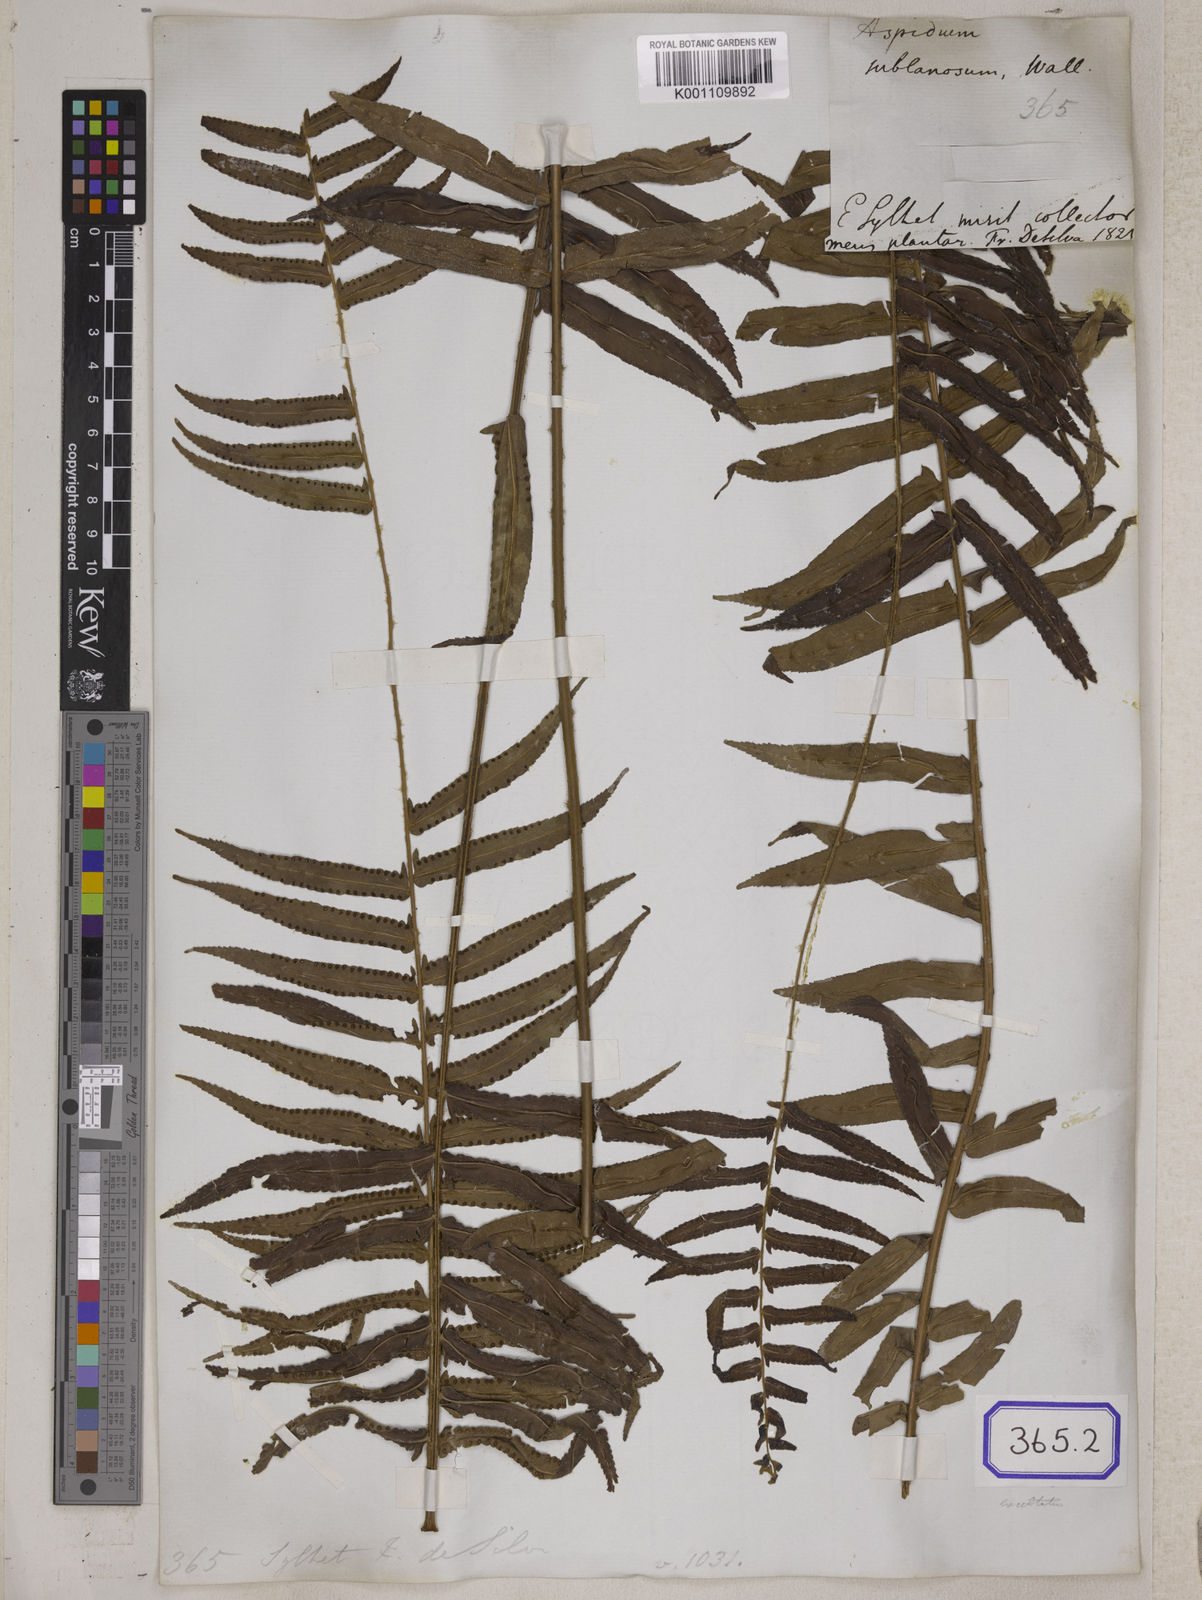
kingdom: Plantae
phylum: Tracheophyta
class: Polypodiopsida
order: Polypodiales
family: Nephrolepidaceae
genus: Nephrolepis
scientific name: Nephrolepis cordifolia
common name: Narrow swordfern
